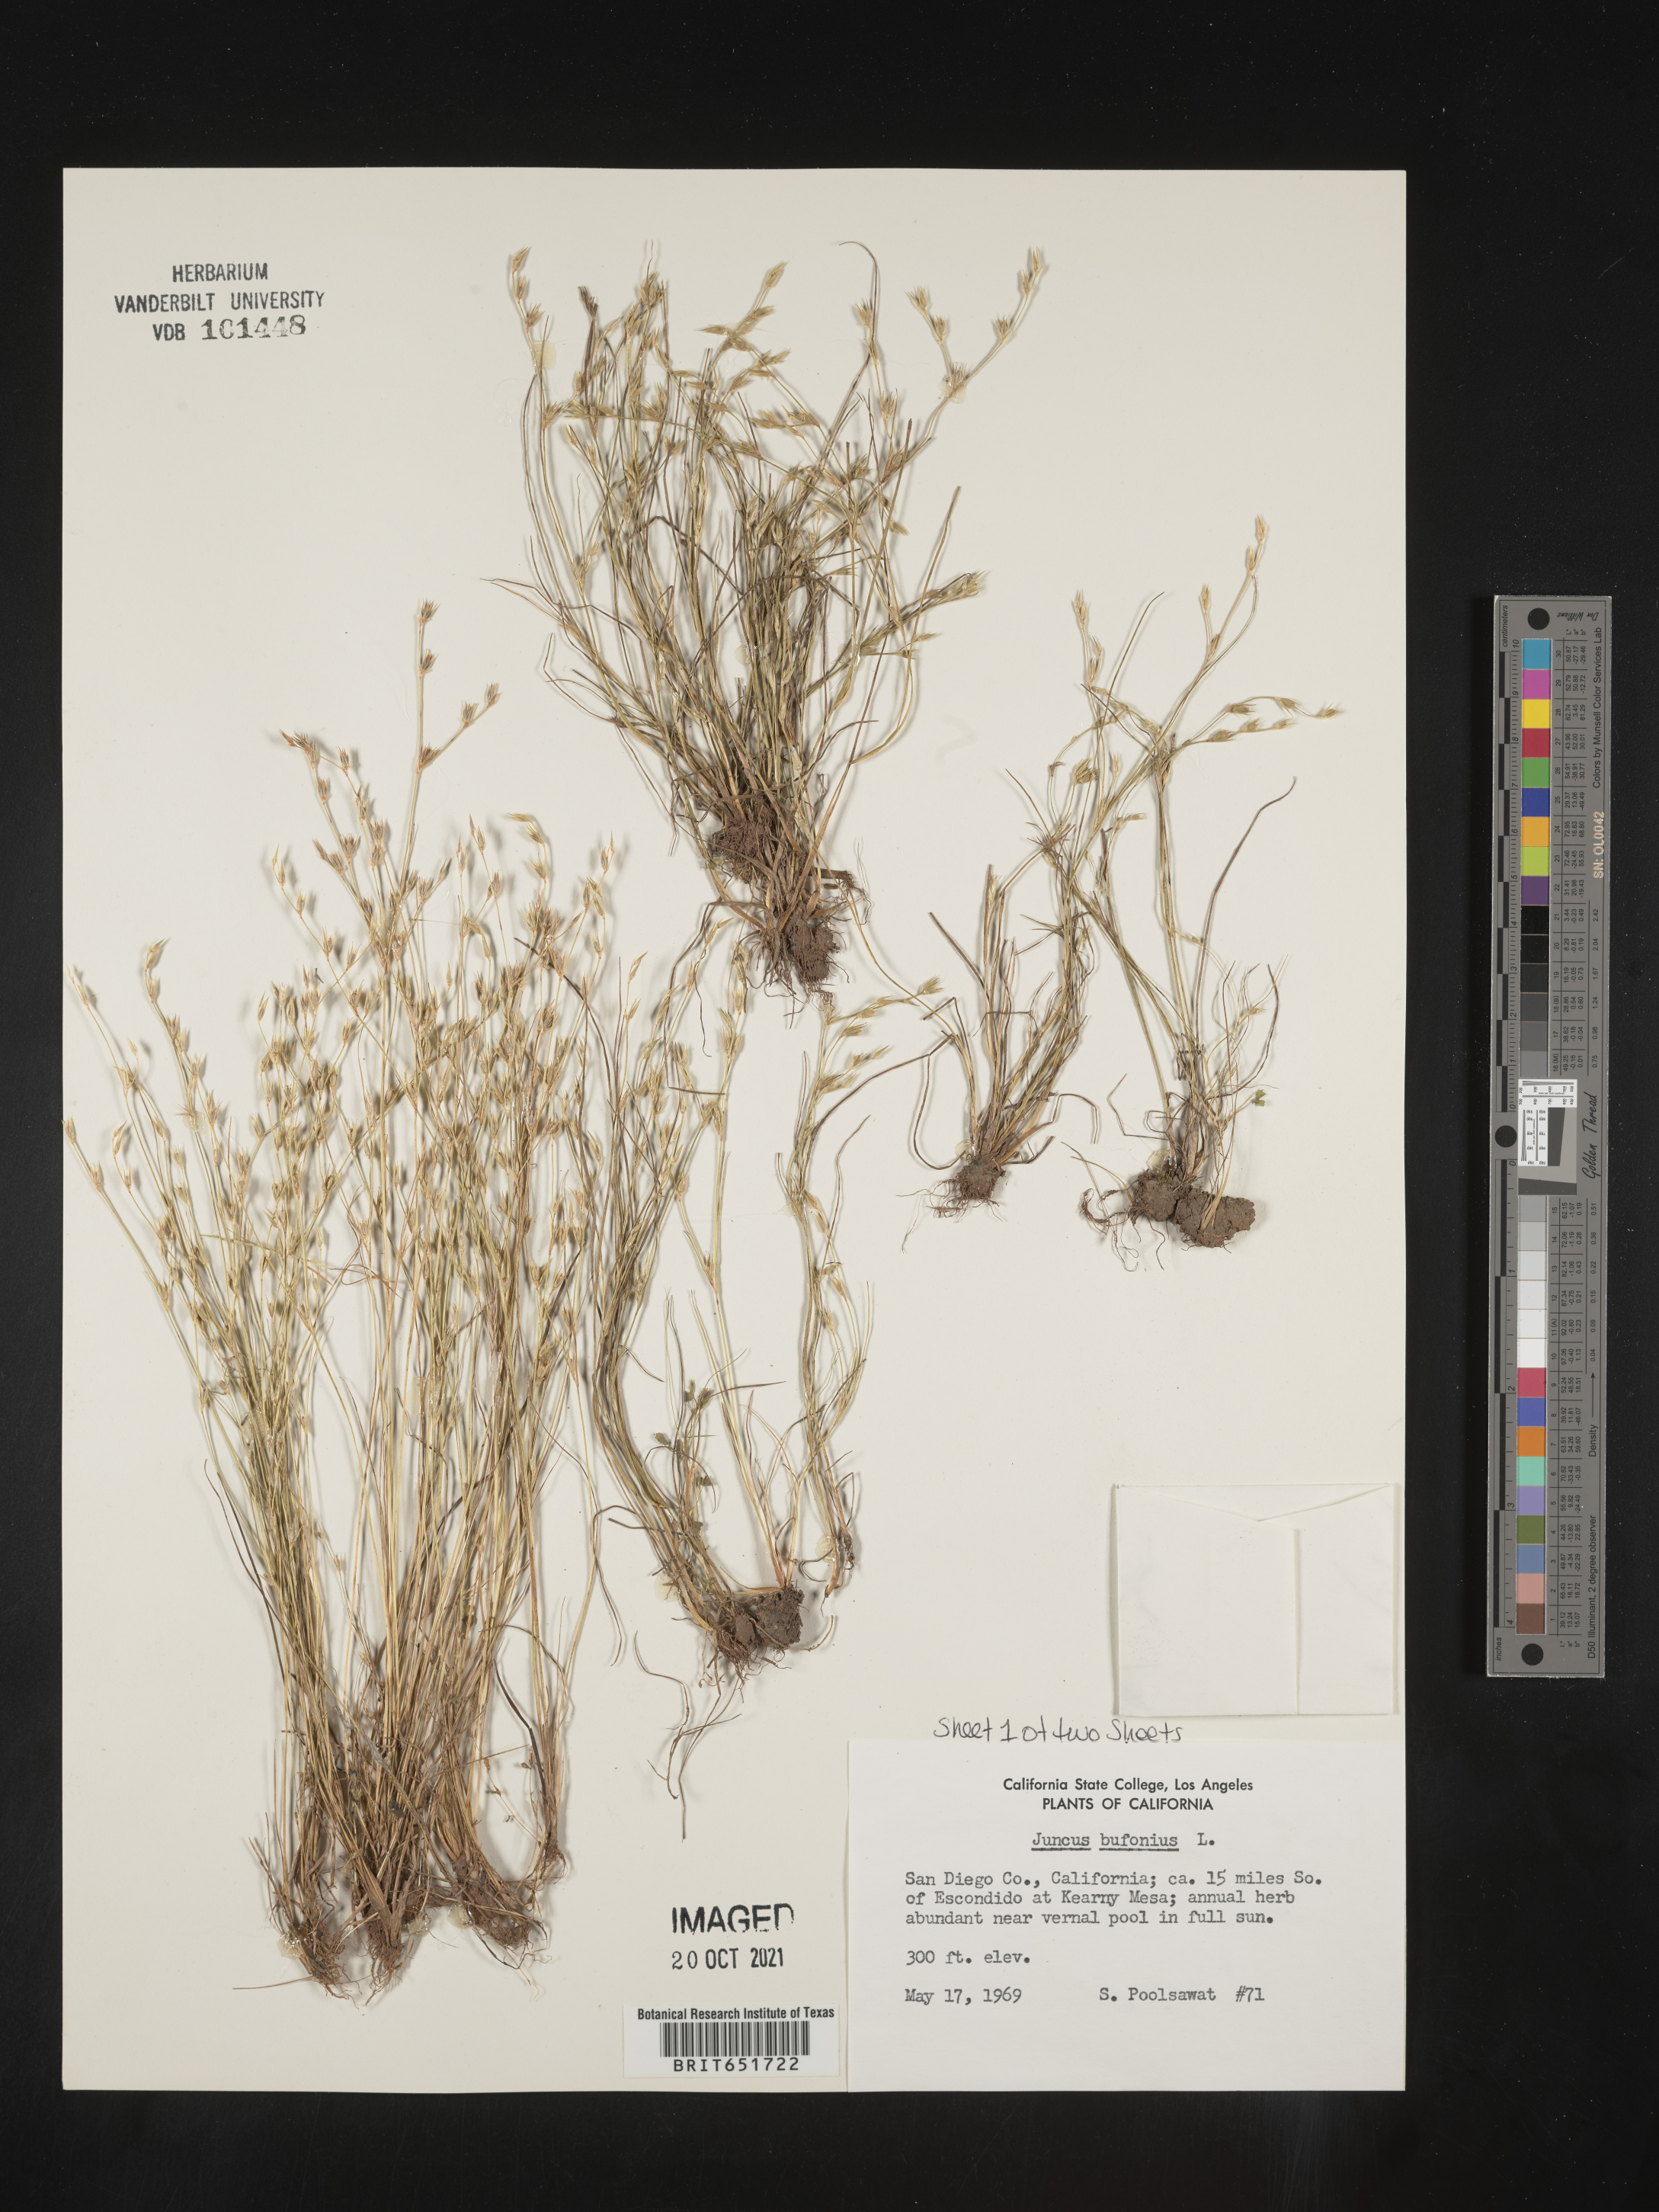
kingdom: Plantae
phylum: Tracheophyta
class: Liliopsida
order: Poales
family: Juncaceae
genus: Juncus
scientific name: Juncus bufonius
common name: Toad rush
